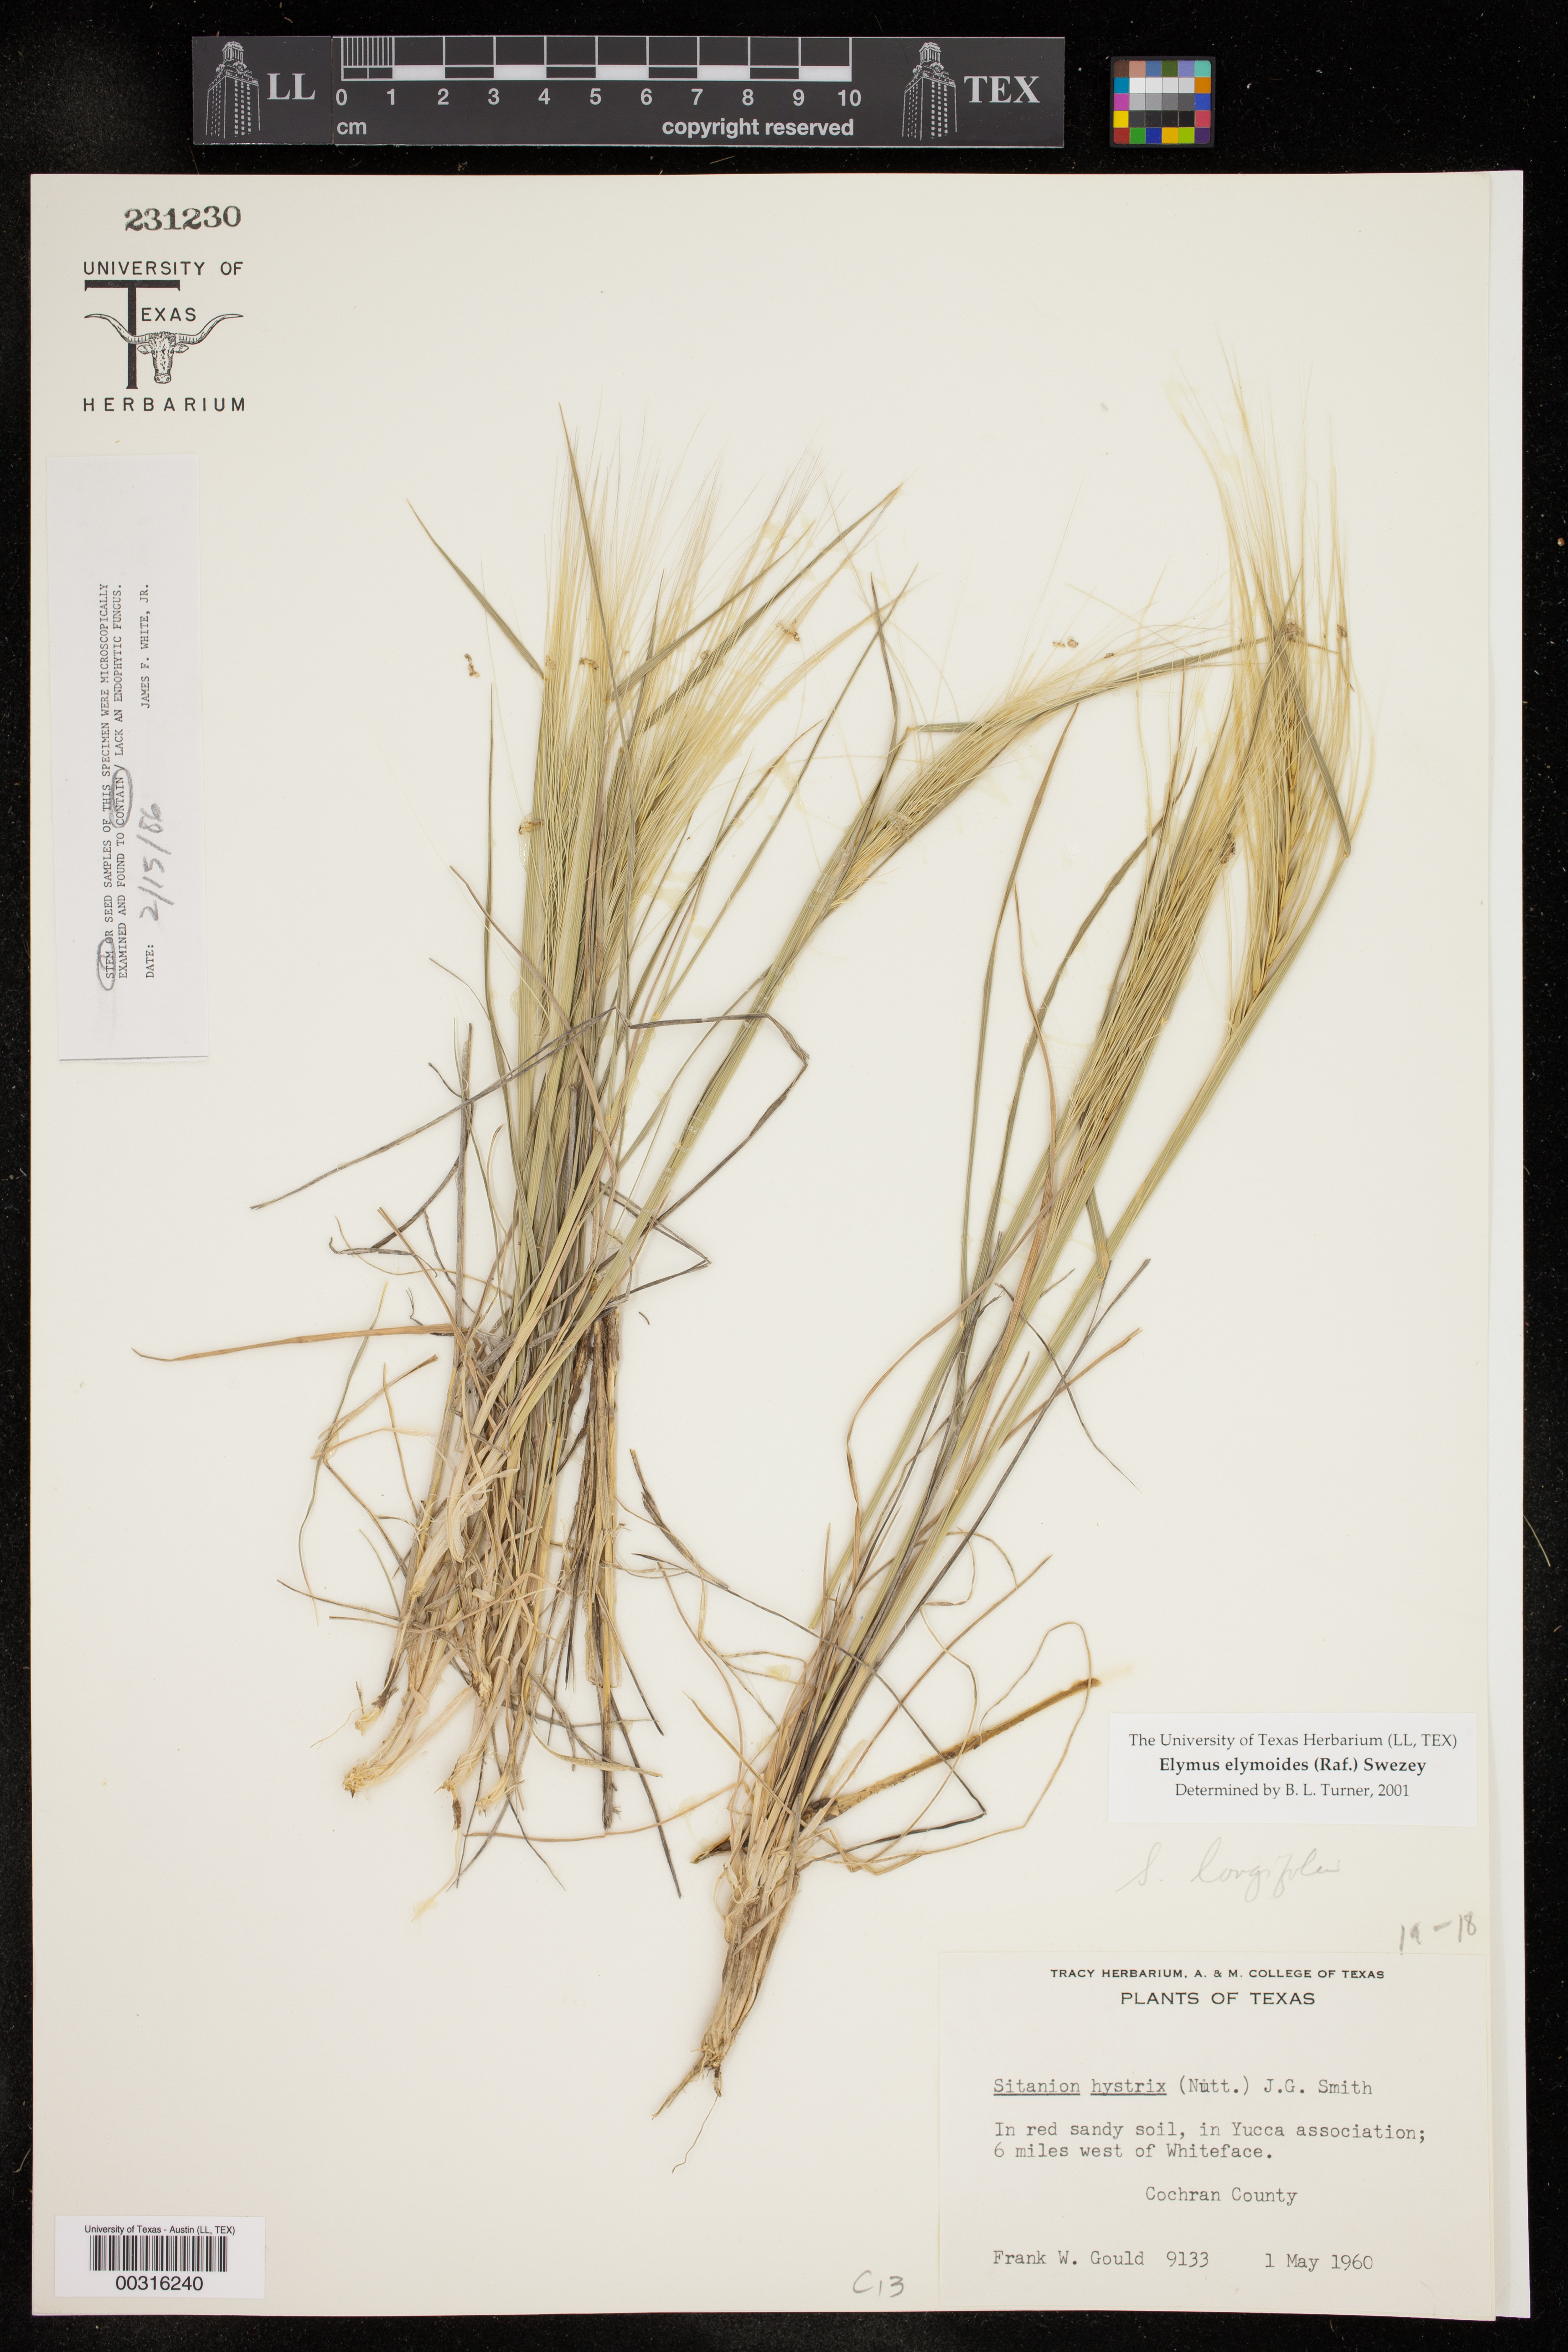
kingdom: Plantae
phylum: Tracheophyta
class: Liliopsida
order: Poales
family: Poaceae
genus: Elymus
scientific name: Elymus elymoides
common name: Bottlebrush squirreltail
